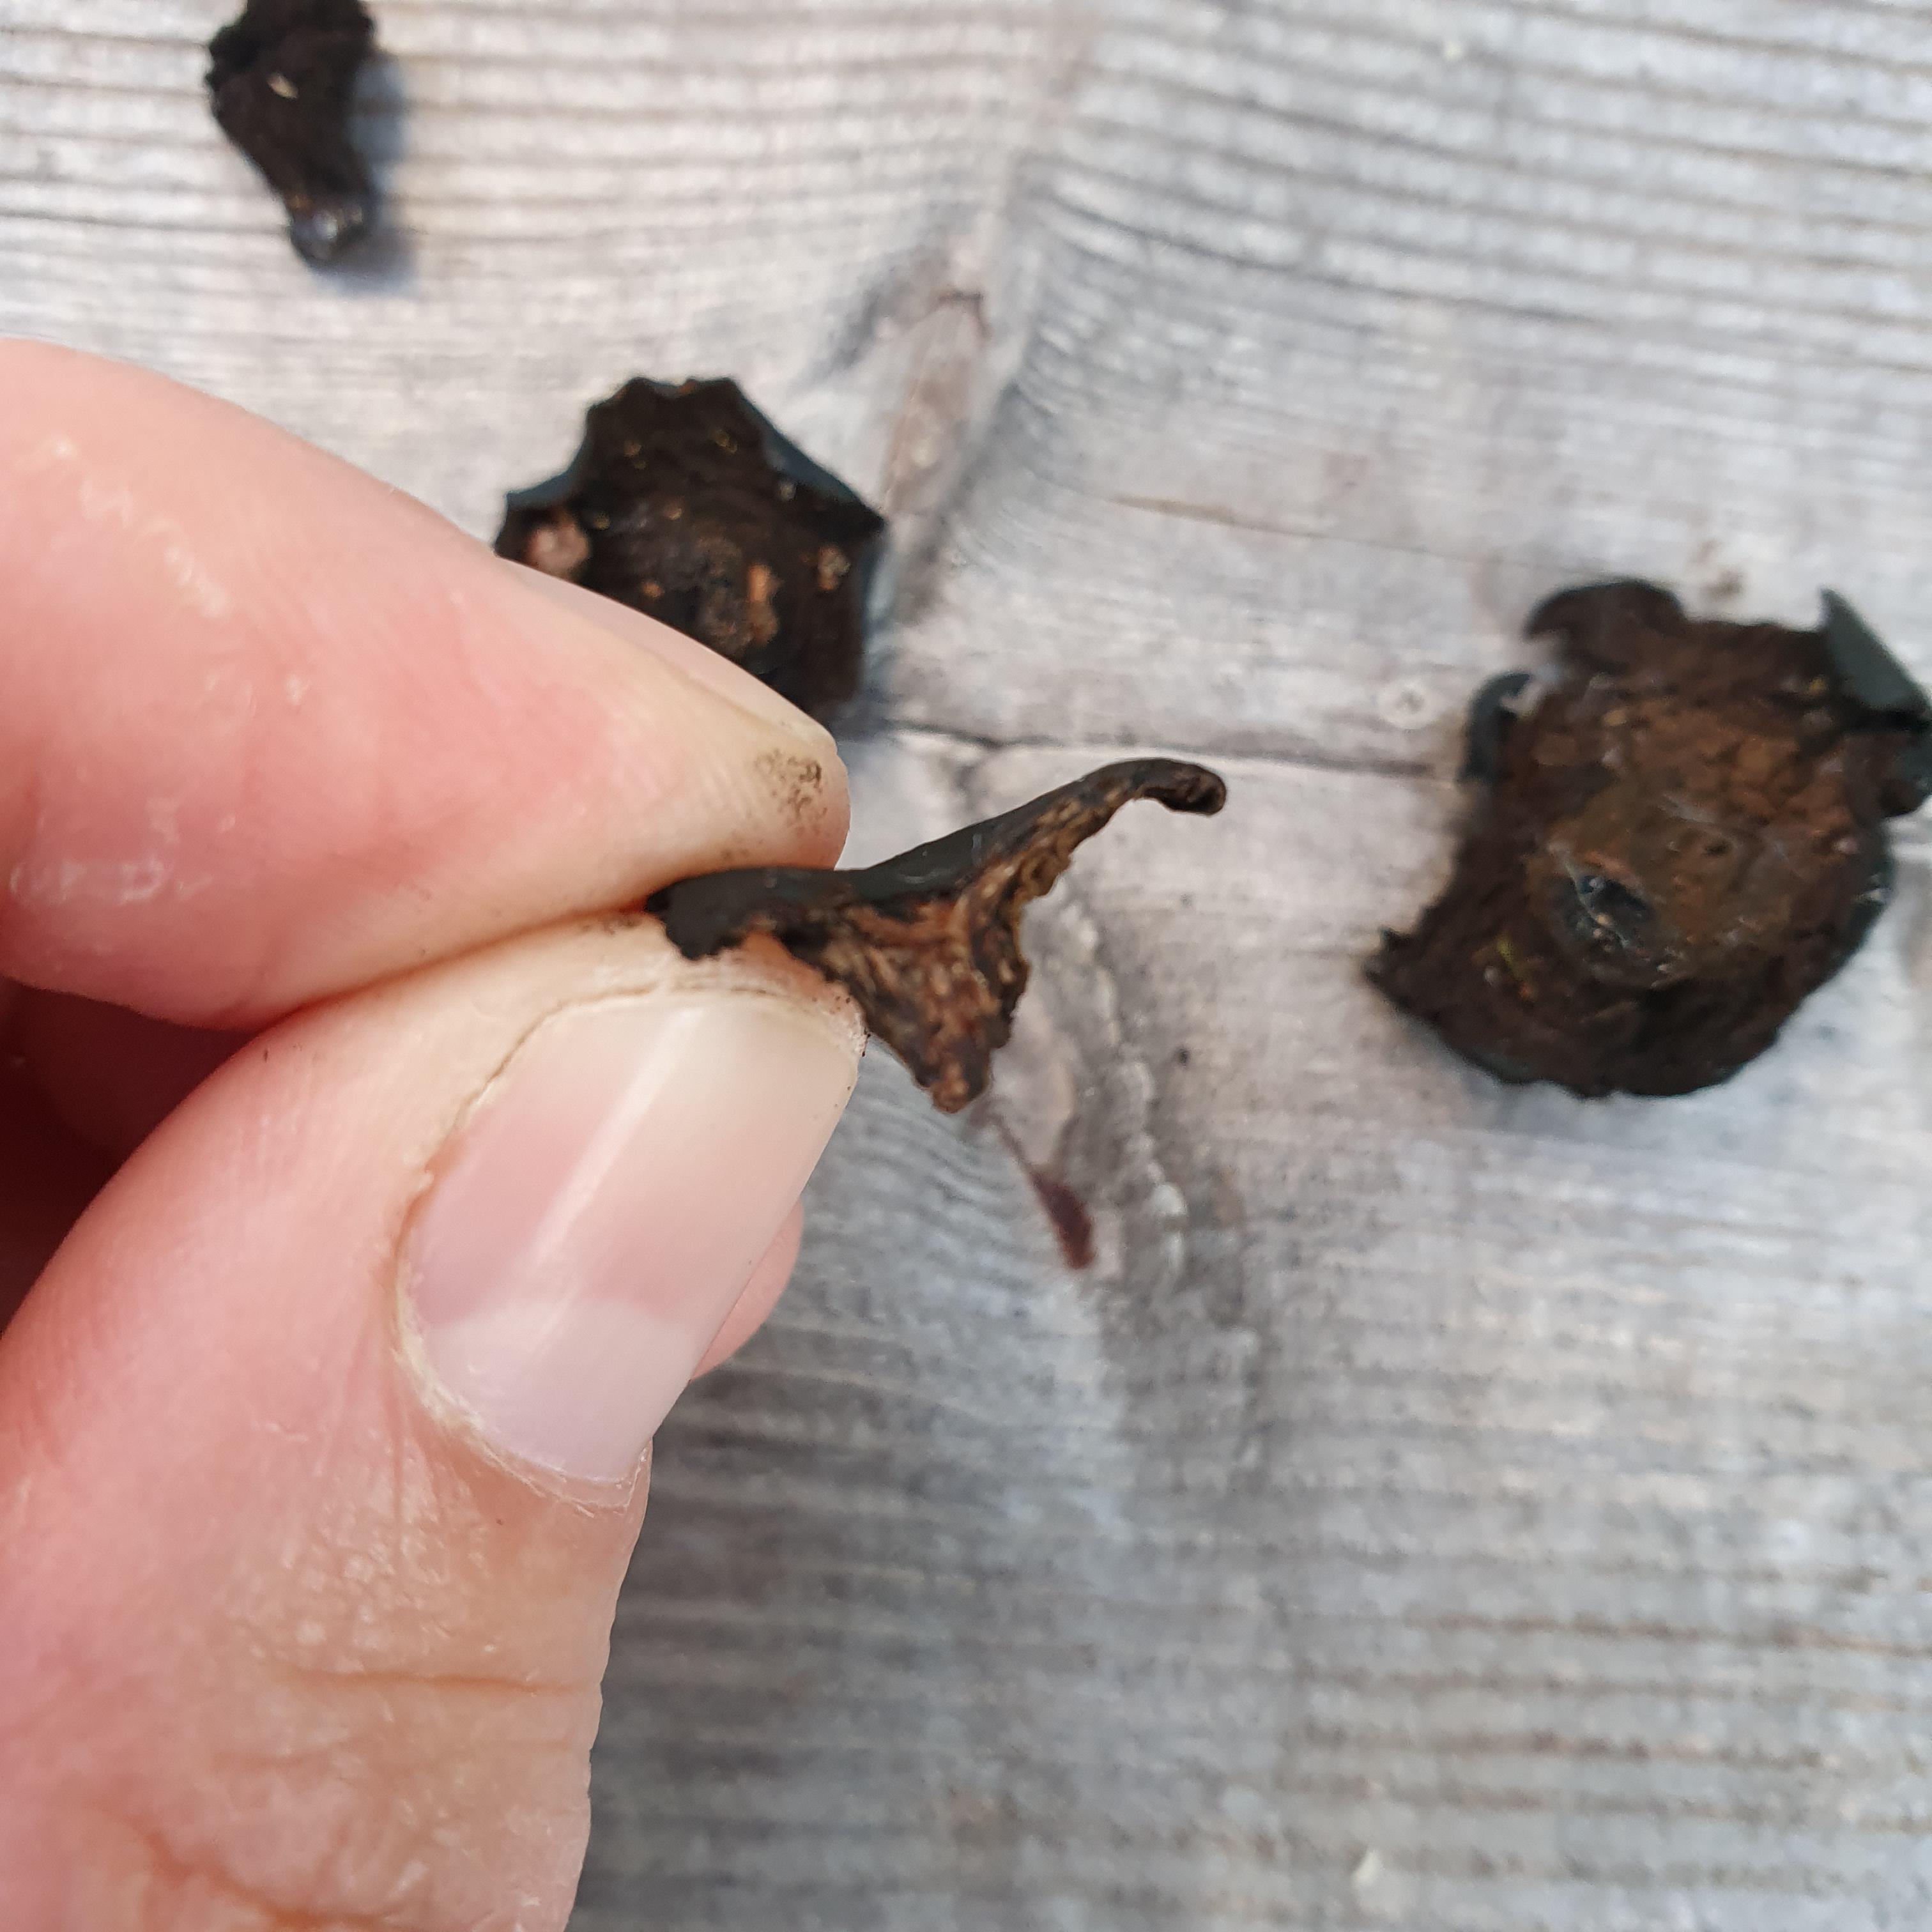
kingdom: Fungi
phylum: Ascomycota
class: Leotiomycetes
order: Phacidiales
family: Phacidiaceae
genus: Bulgaria
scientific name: Bulgaria inquinans
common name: afsmittende topsvamp
